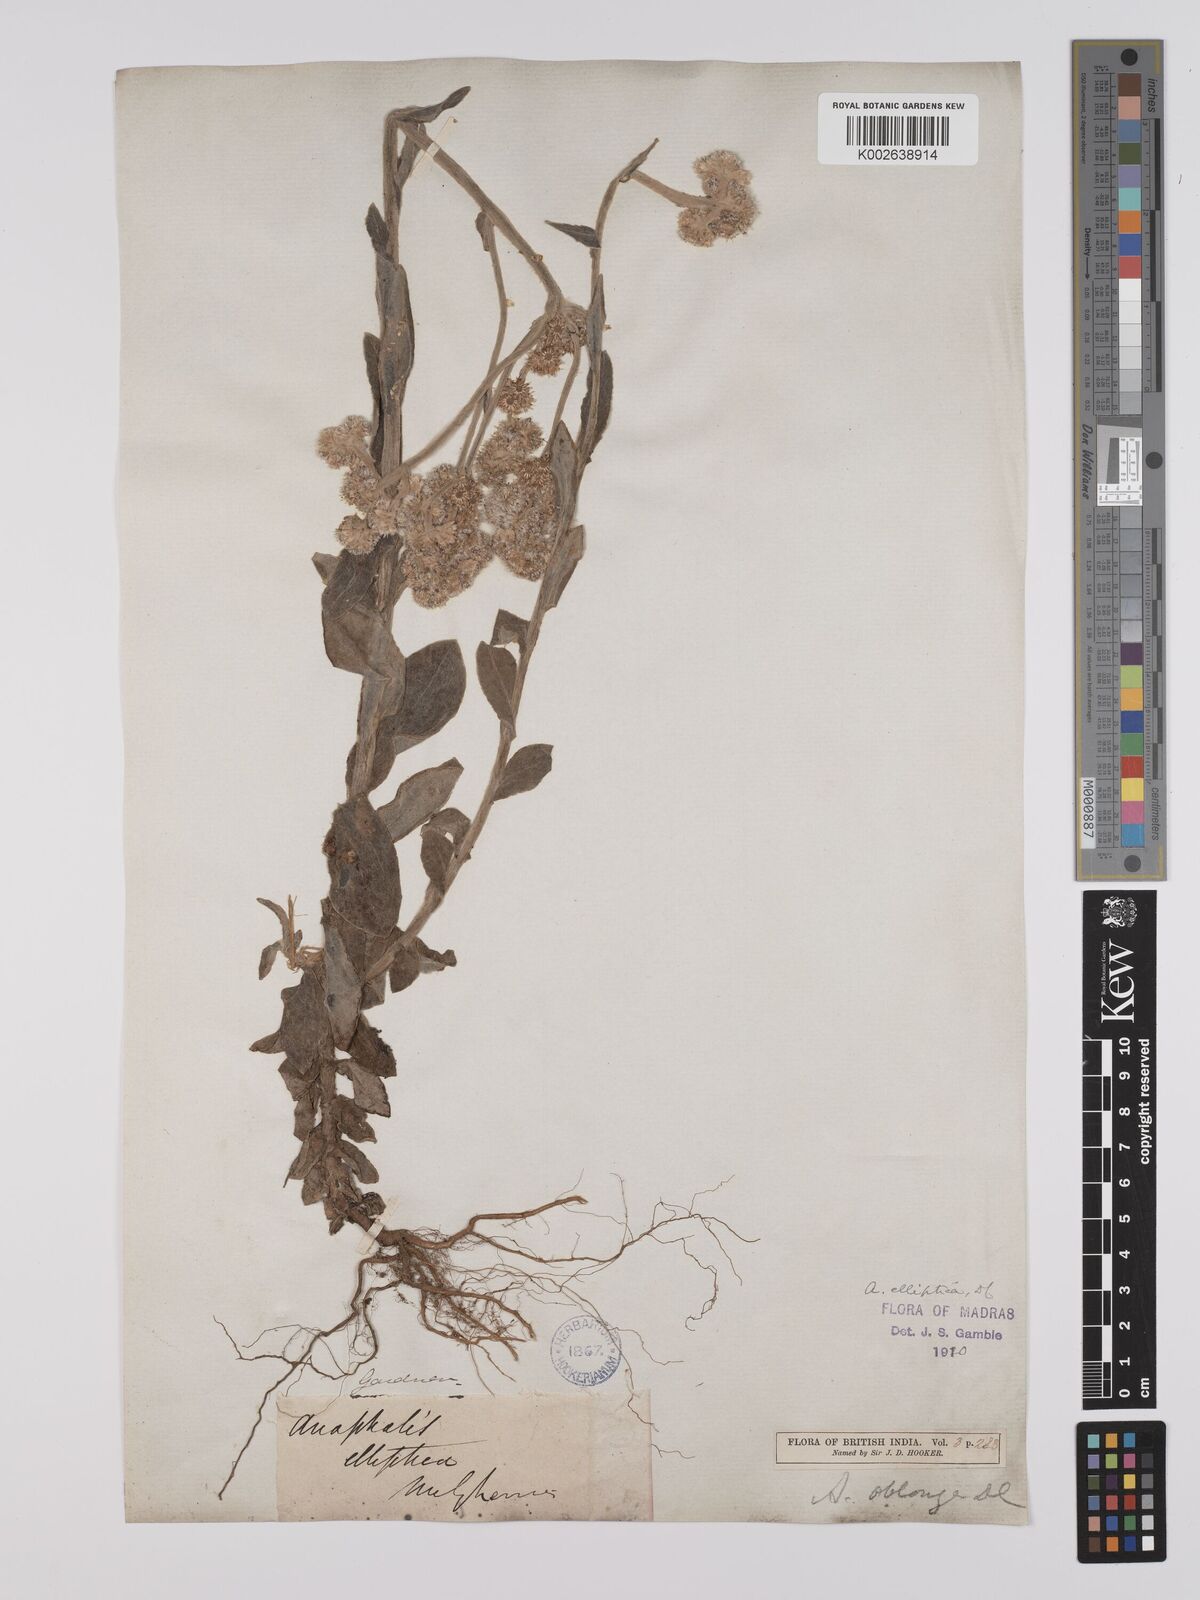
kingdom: Plantae
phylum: Tracheophyta
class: Magnoliopsida
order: Asterales
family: Asteraceae
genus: Anaphalis
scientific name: Anaphalis elliptica
